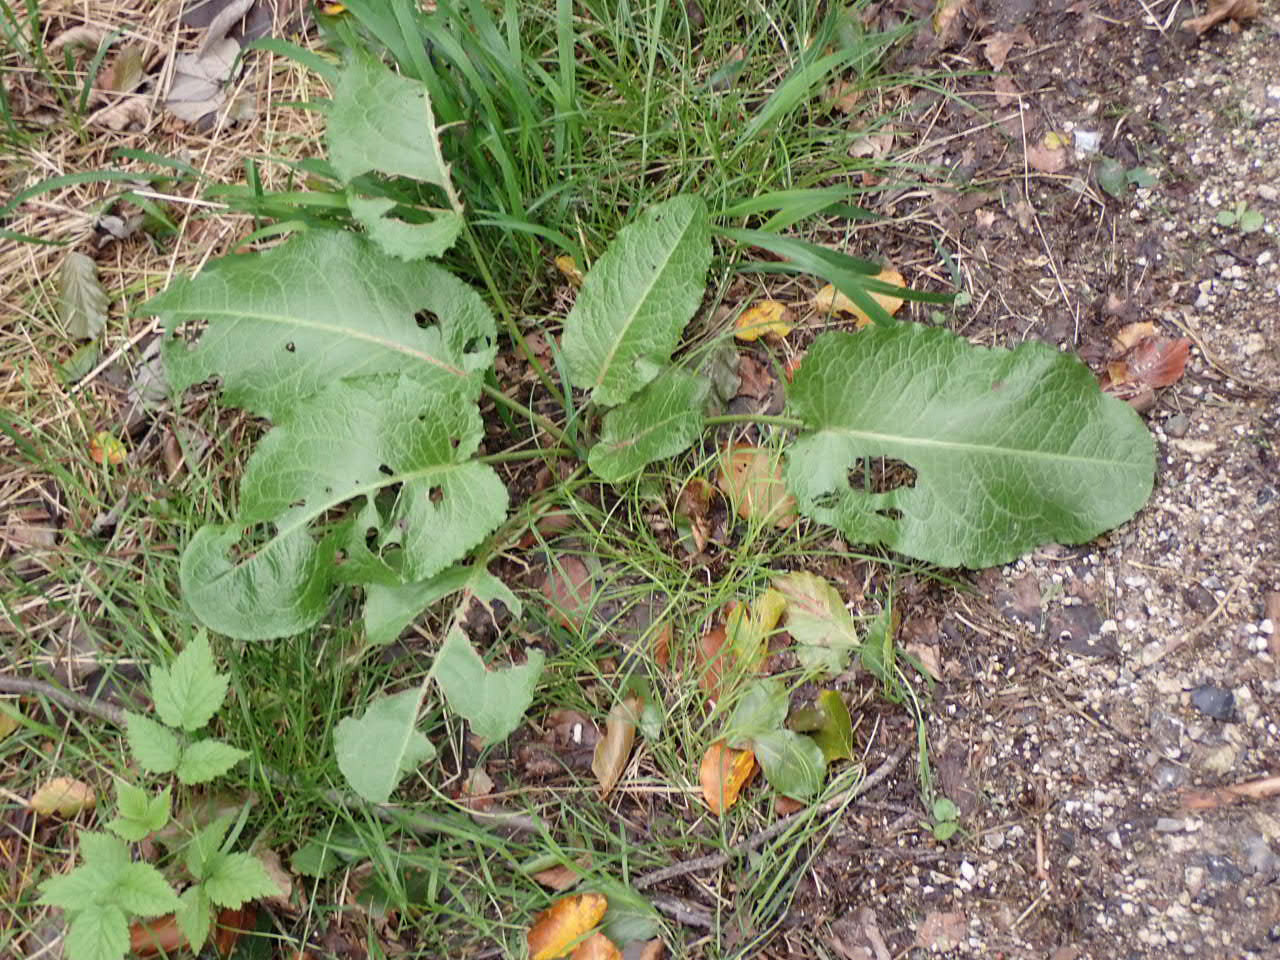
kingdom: Plantae
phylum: Tracheophyta
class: Magnoliopsida
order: Caryophyllales
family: Polygonaceae
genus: Rumex
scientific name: Rumex obtusifolius
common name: Butbladet skræppe
